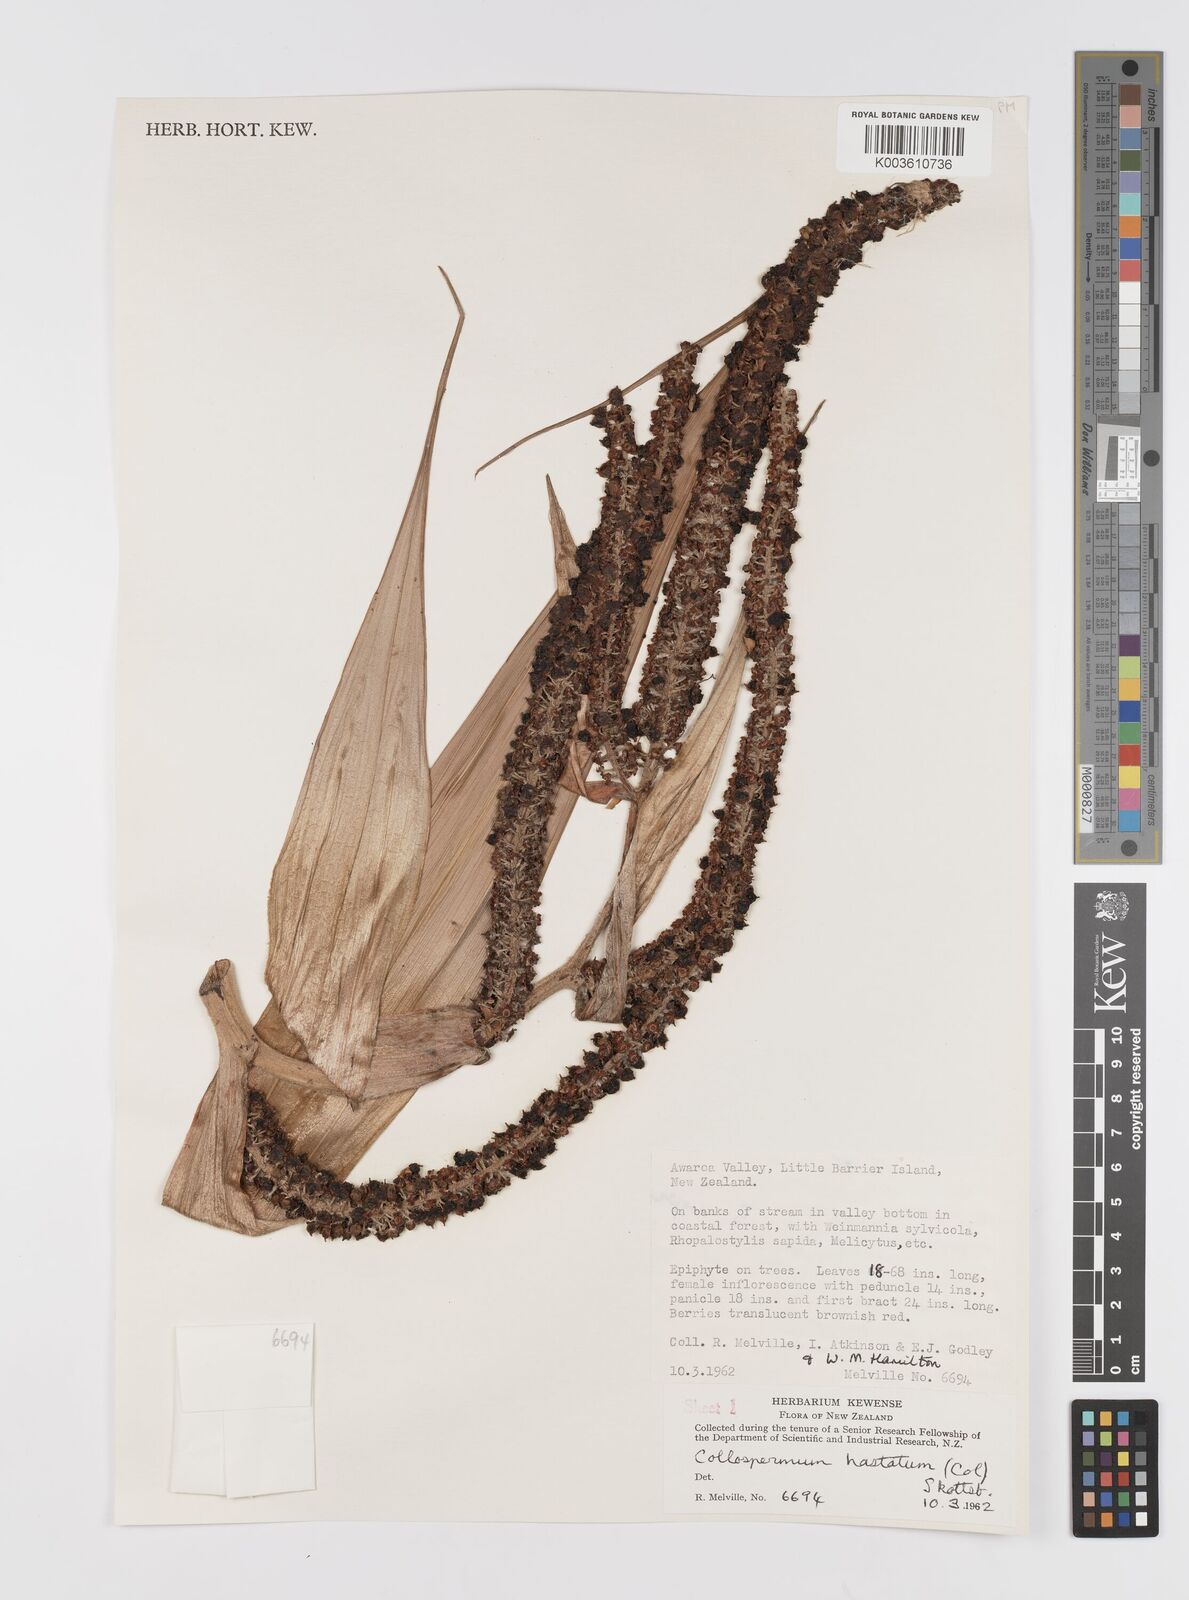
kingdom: Plantae
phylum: Tracheophyta
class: Liliopsida
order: Asparagales
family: Asteliaceae
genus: Astelia
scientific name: Astelia hastata
